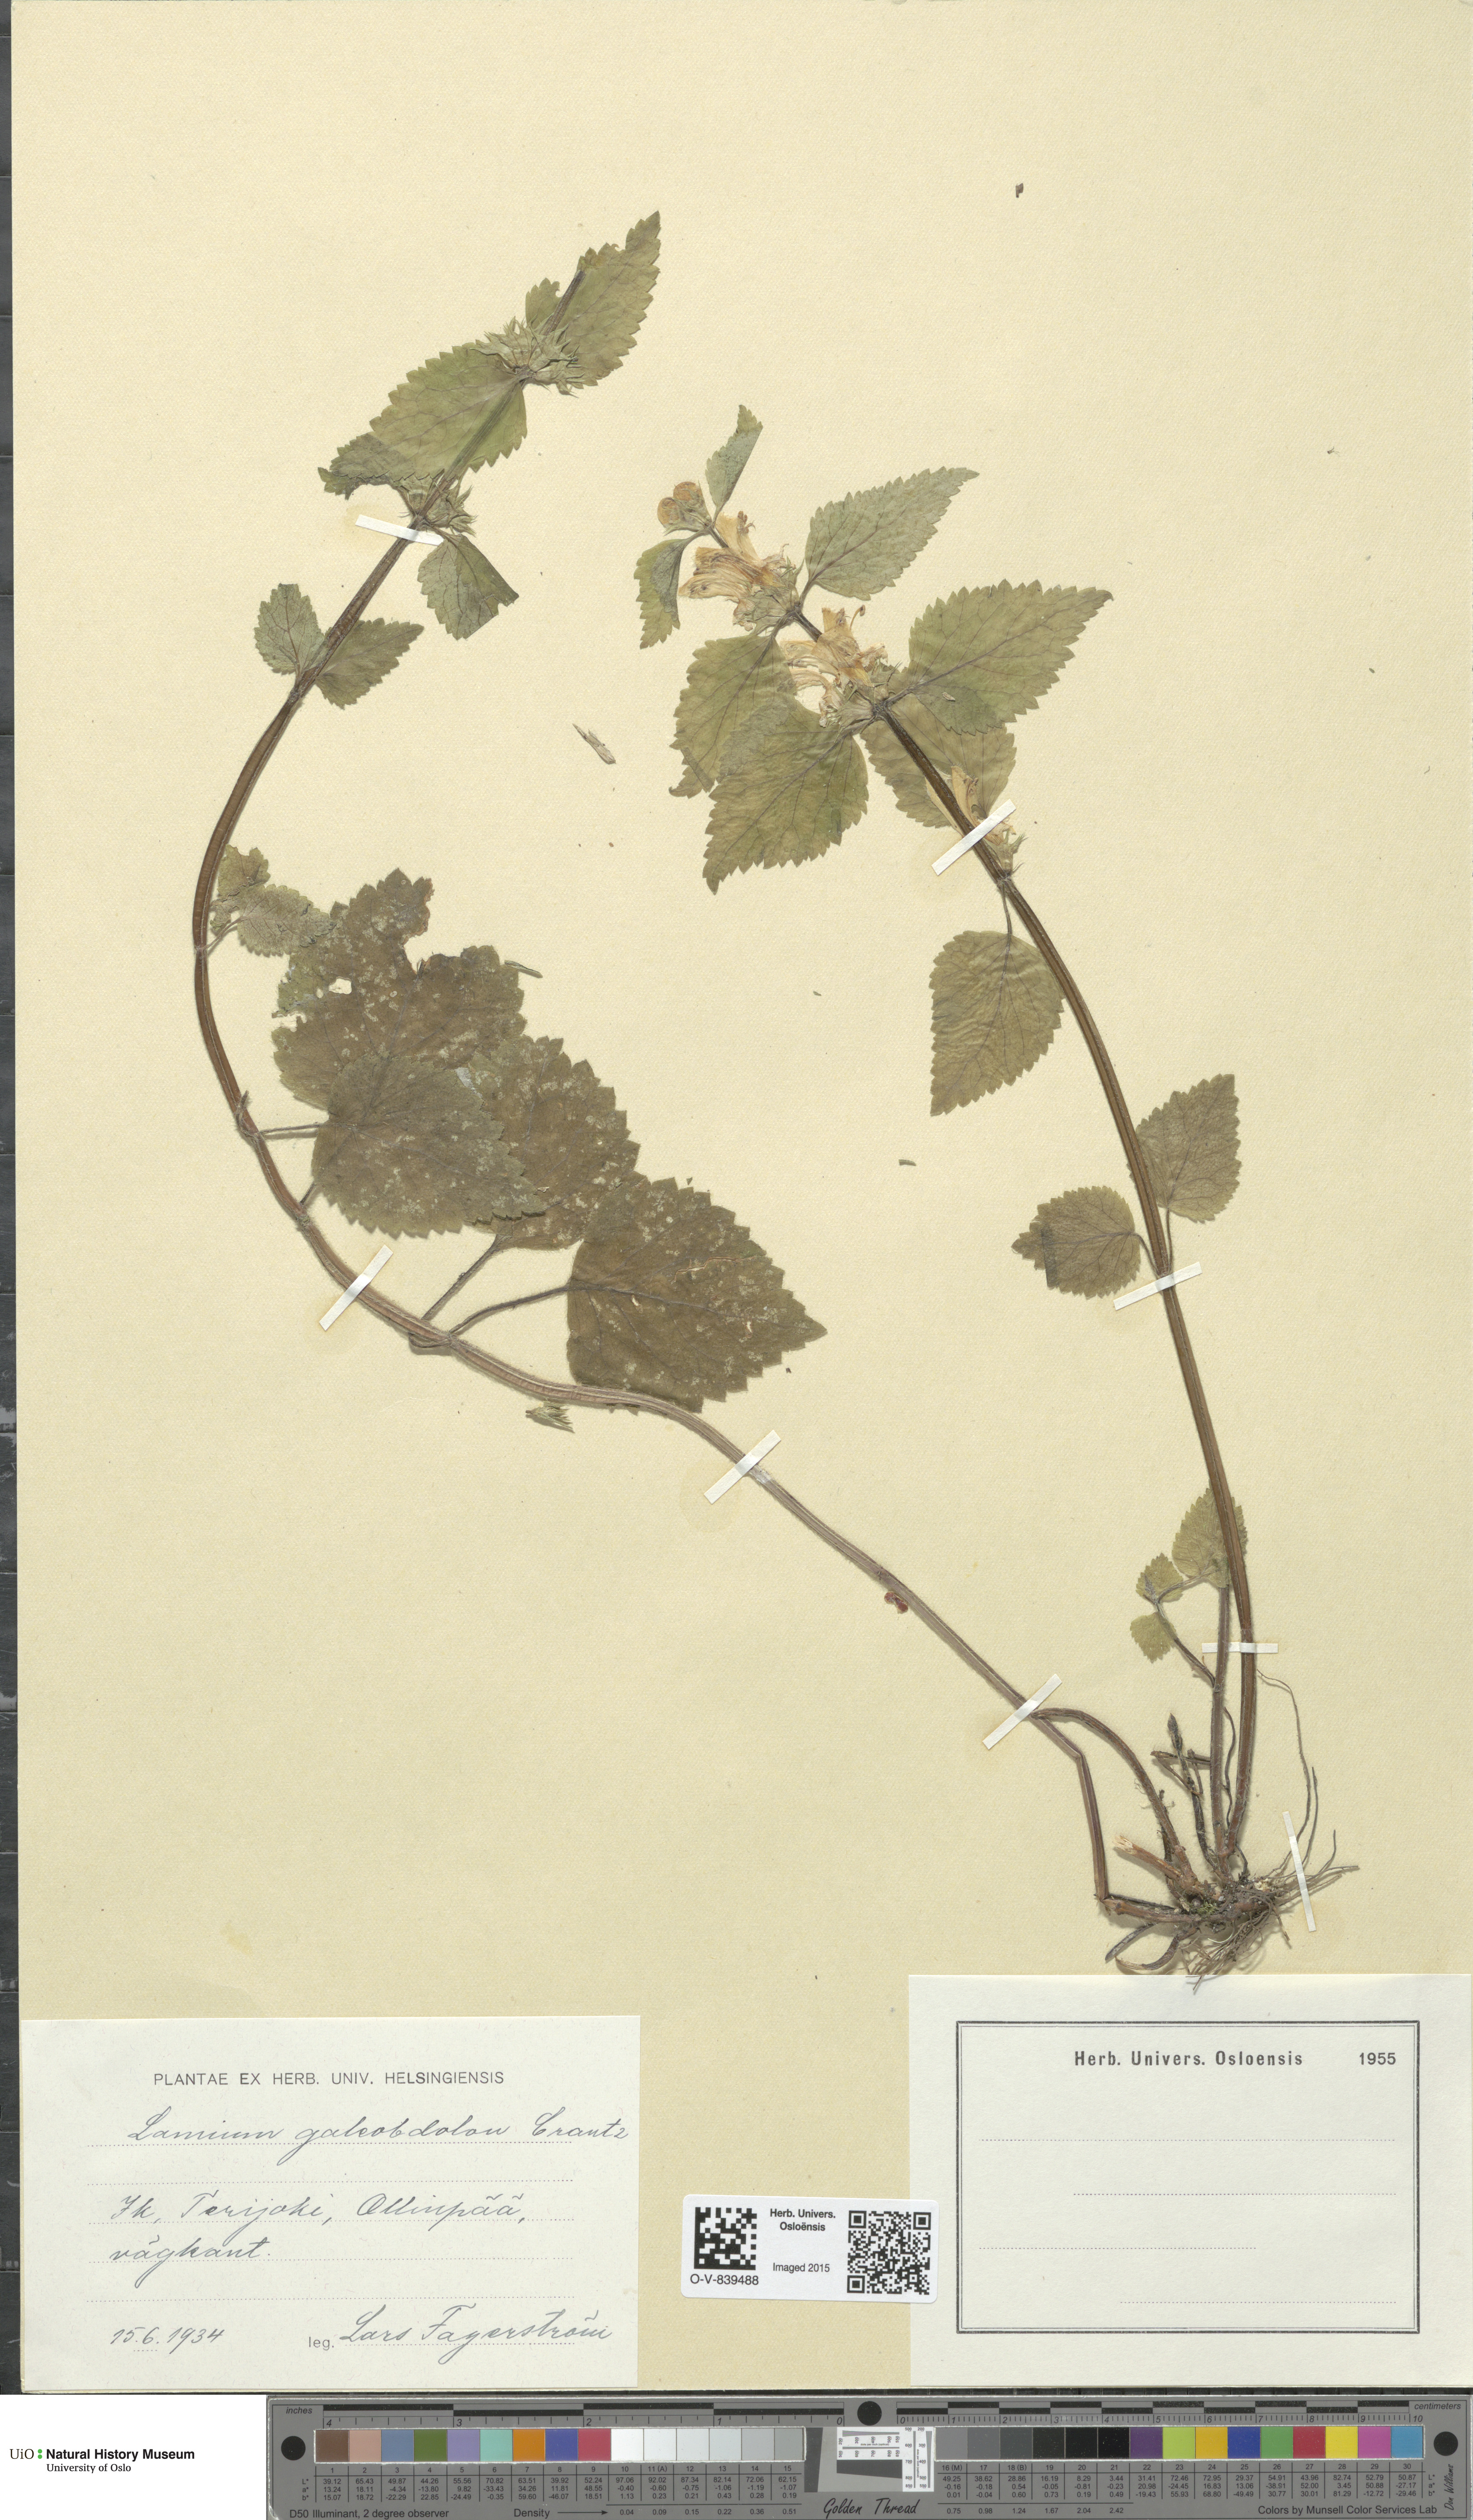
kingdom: Plantae
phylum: Tracheophyta
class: Magnoliopsida
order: Lamiales
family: Lamiaceae
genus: Lamium
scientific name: Lamium galeobdolon
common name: Yellow archangel
